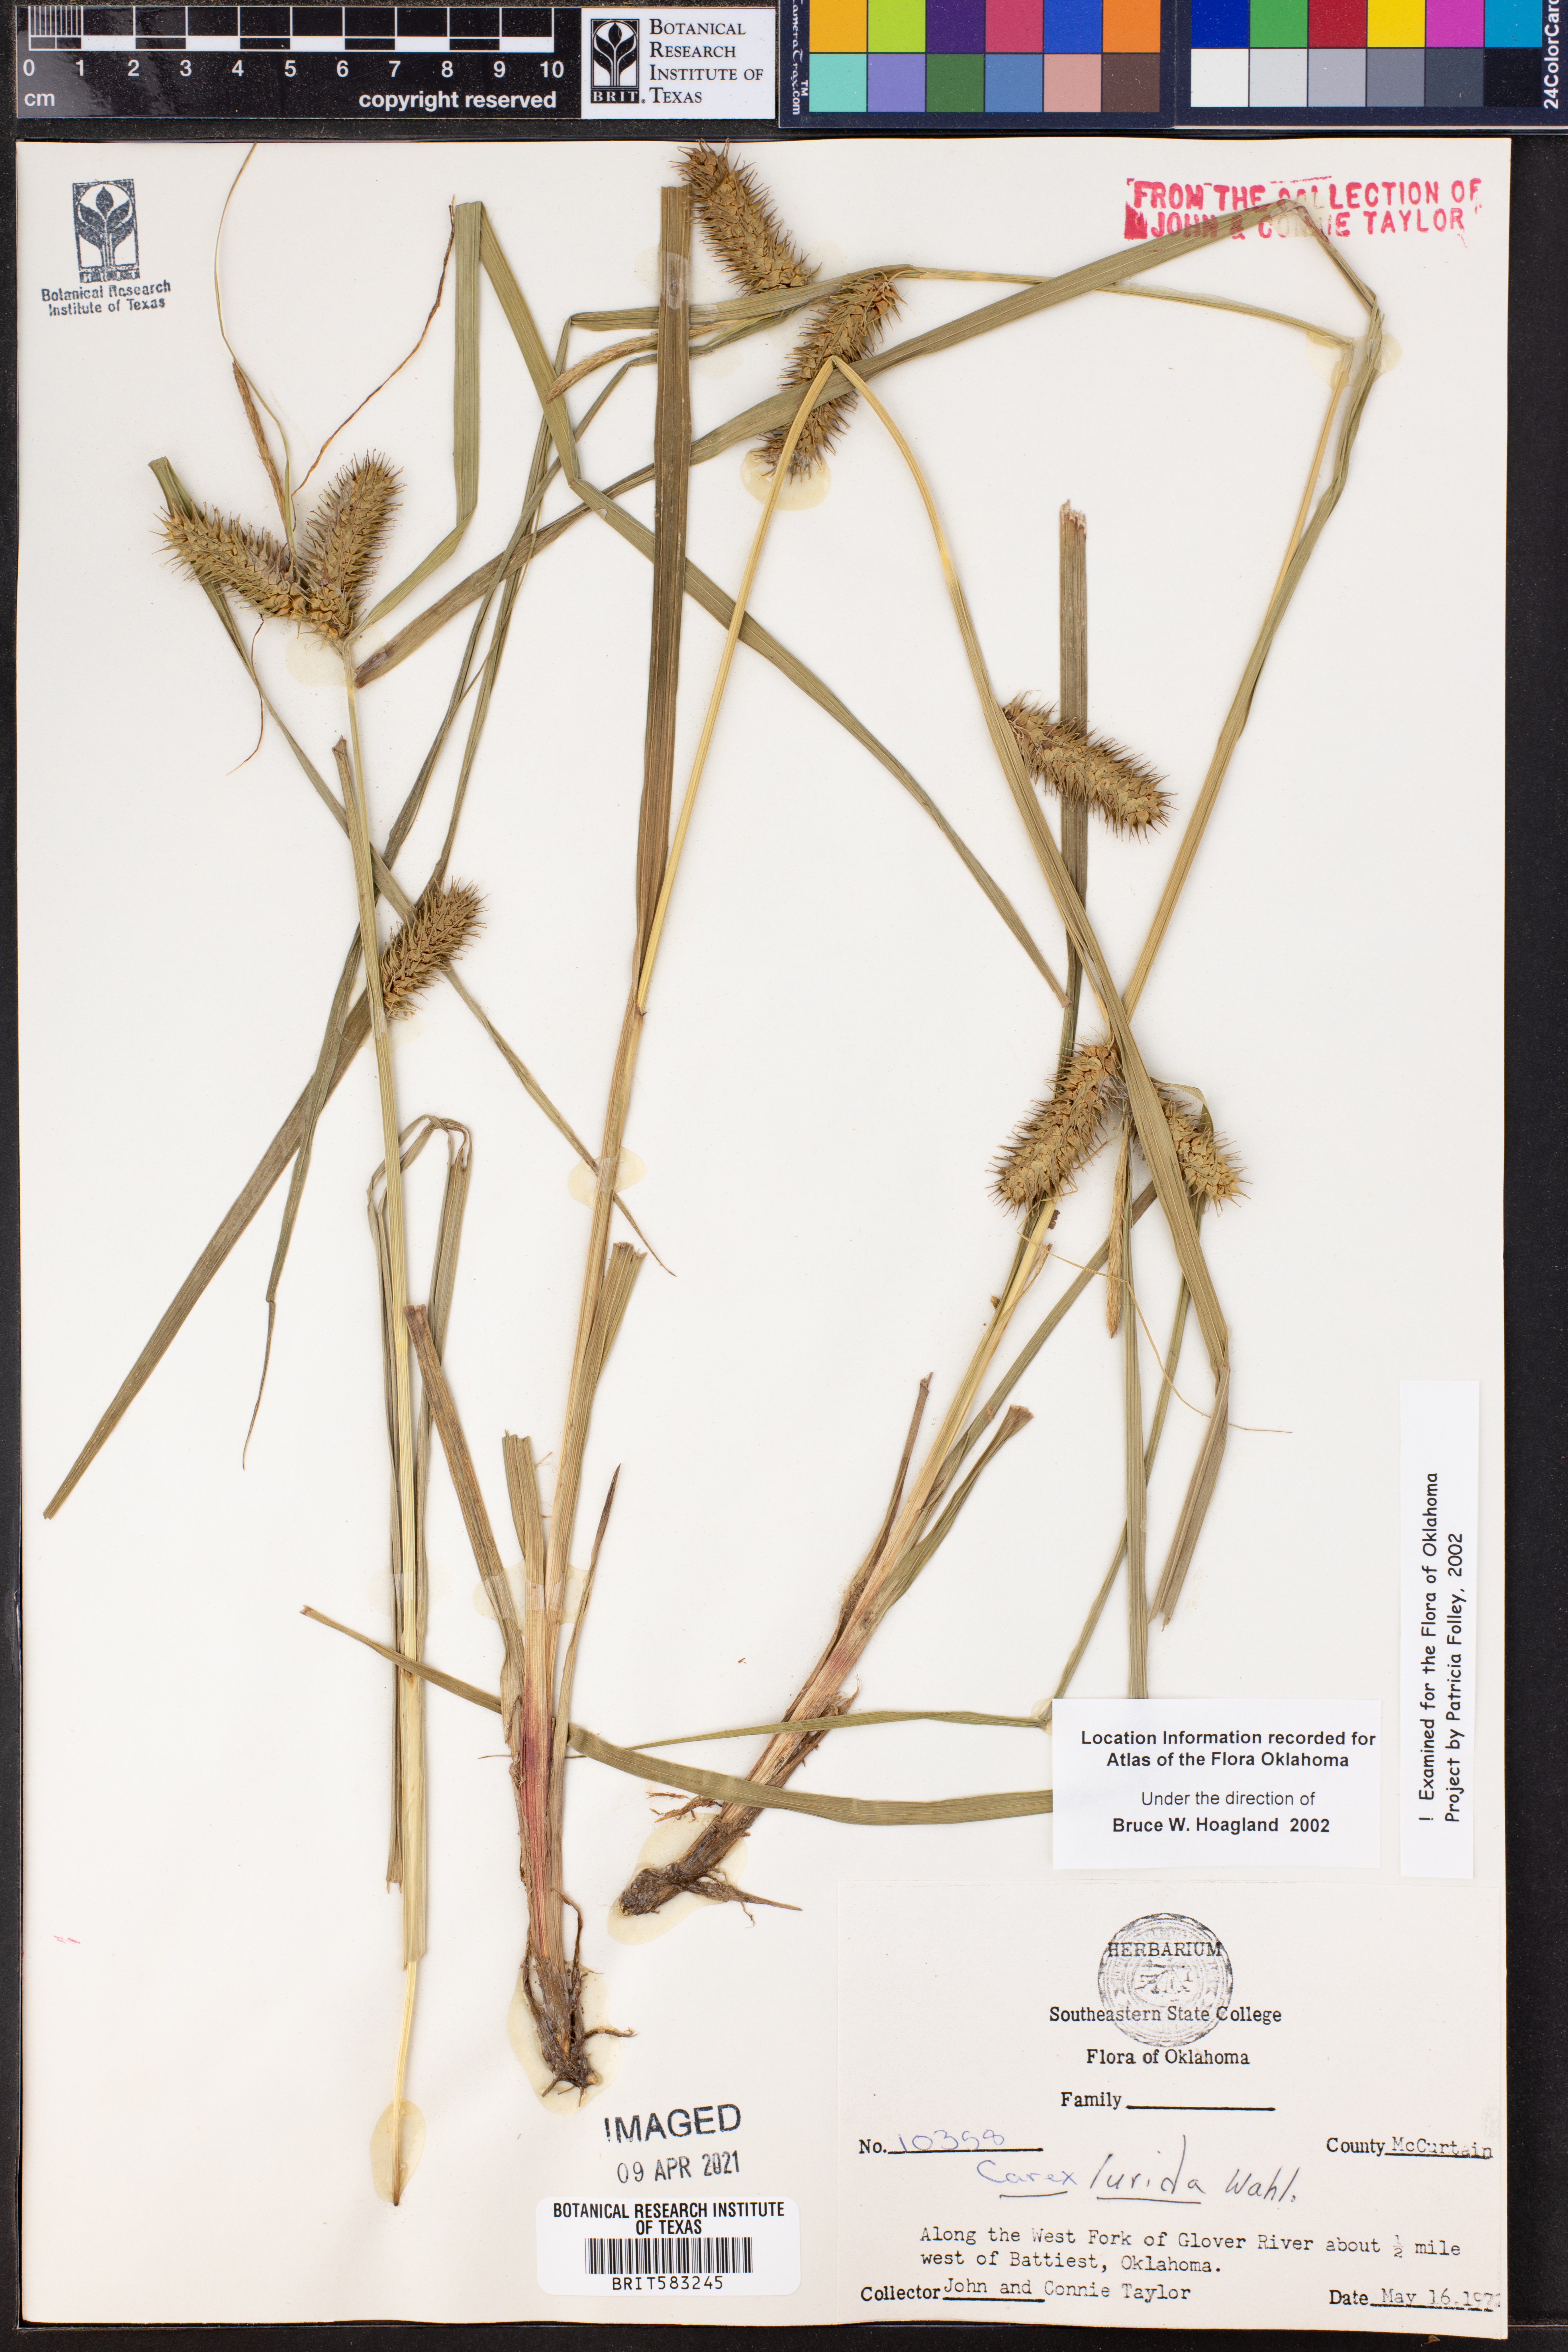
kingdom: Plantae
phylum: Tracheophyta
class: Liliopsida
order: Poales
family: Cyperaceae
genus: Carex
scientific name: Carex lurida
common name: Sallow sedge
